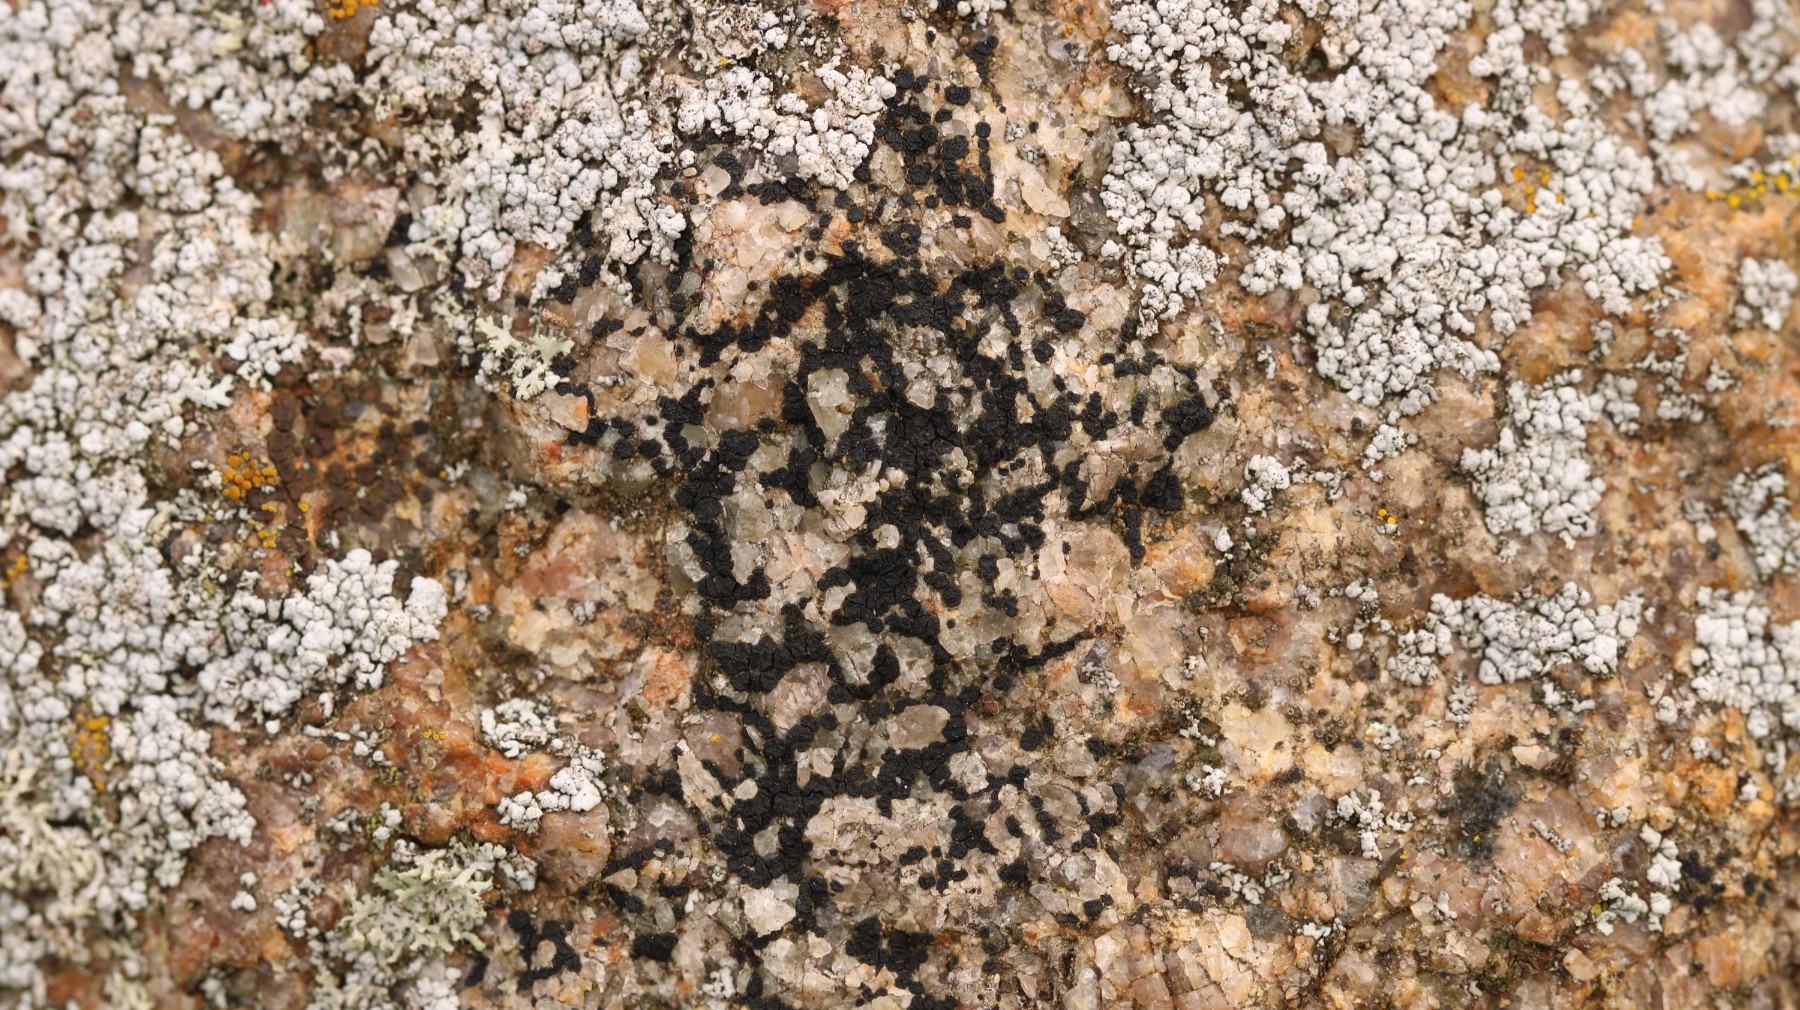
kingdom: Fungi
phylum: Ascomycota
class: Lecanoromycetes
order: Acarosporales
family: Acarosporaceae
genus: Acarospora
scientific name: Acarospora privigna
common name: sort foldekantlav
